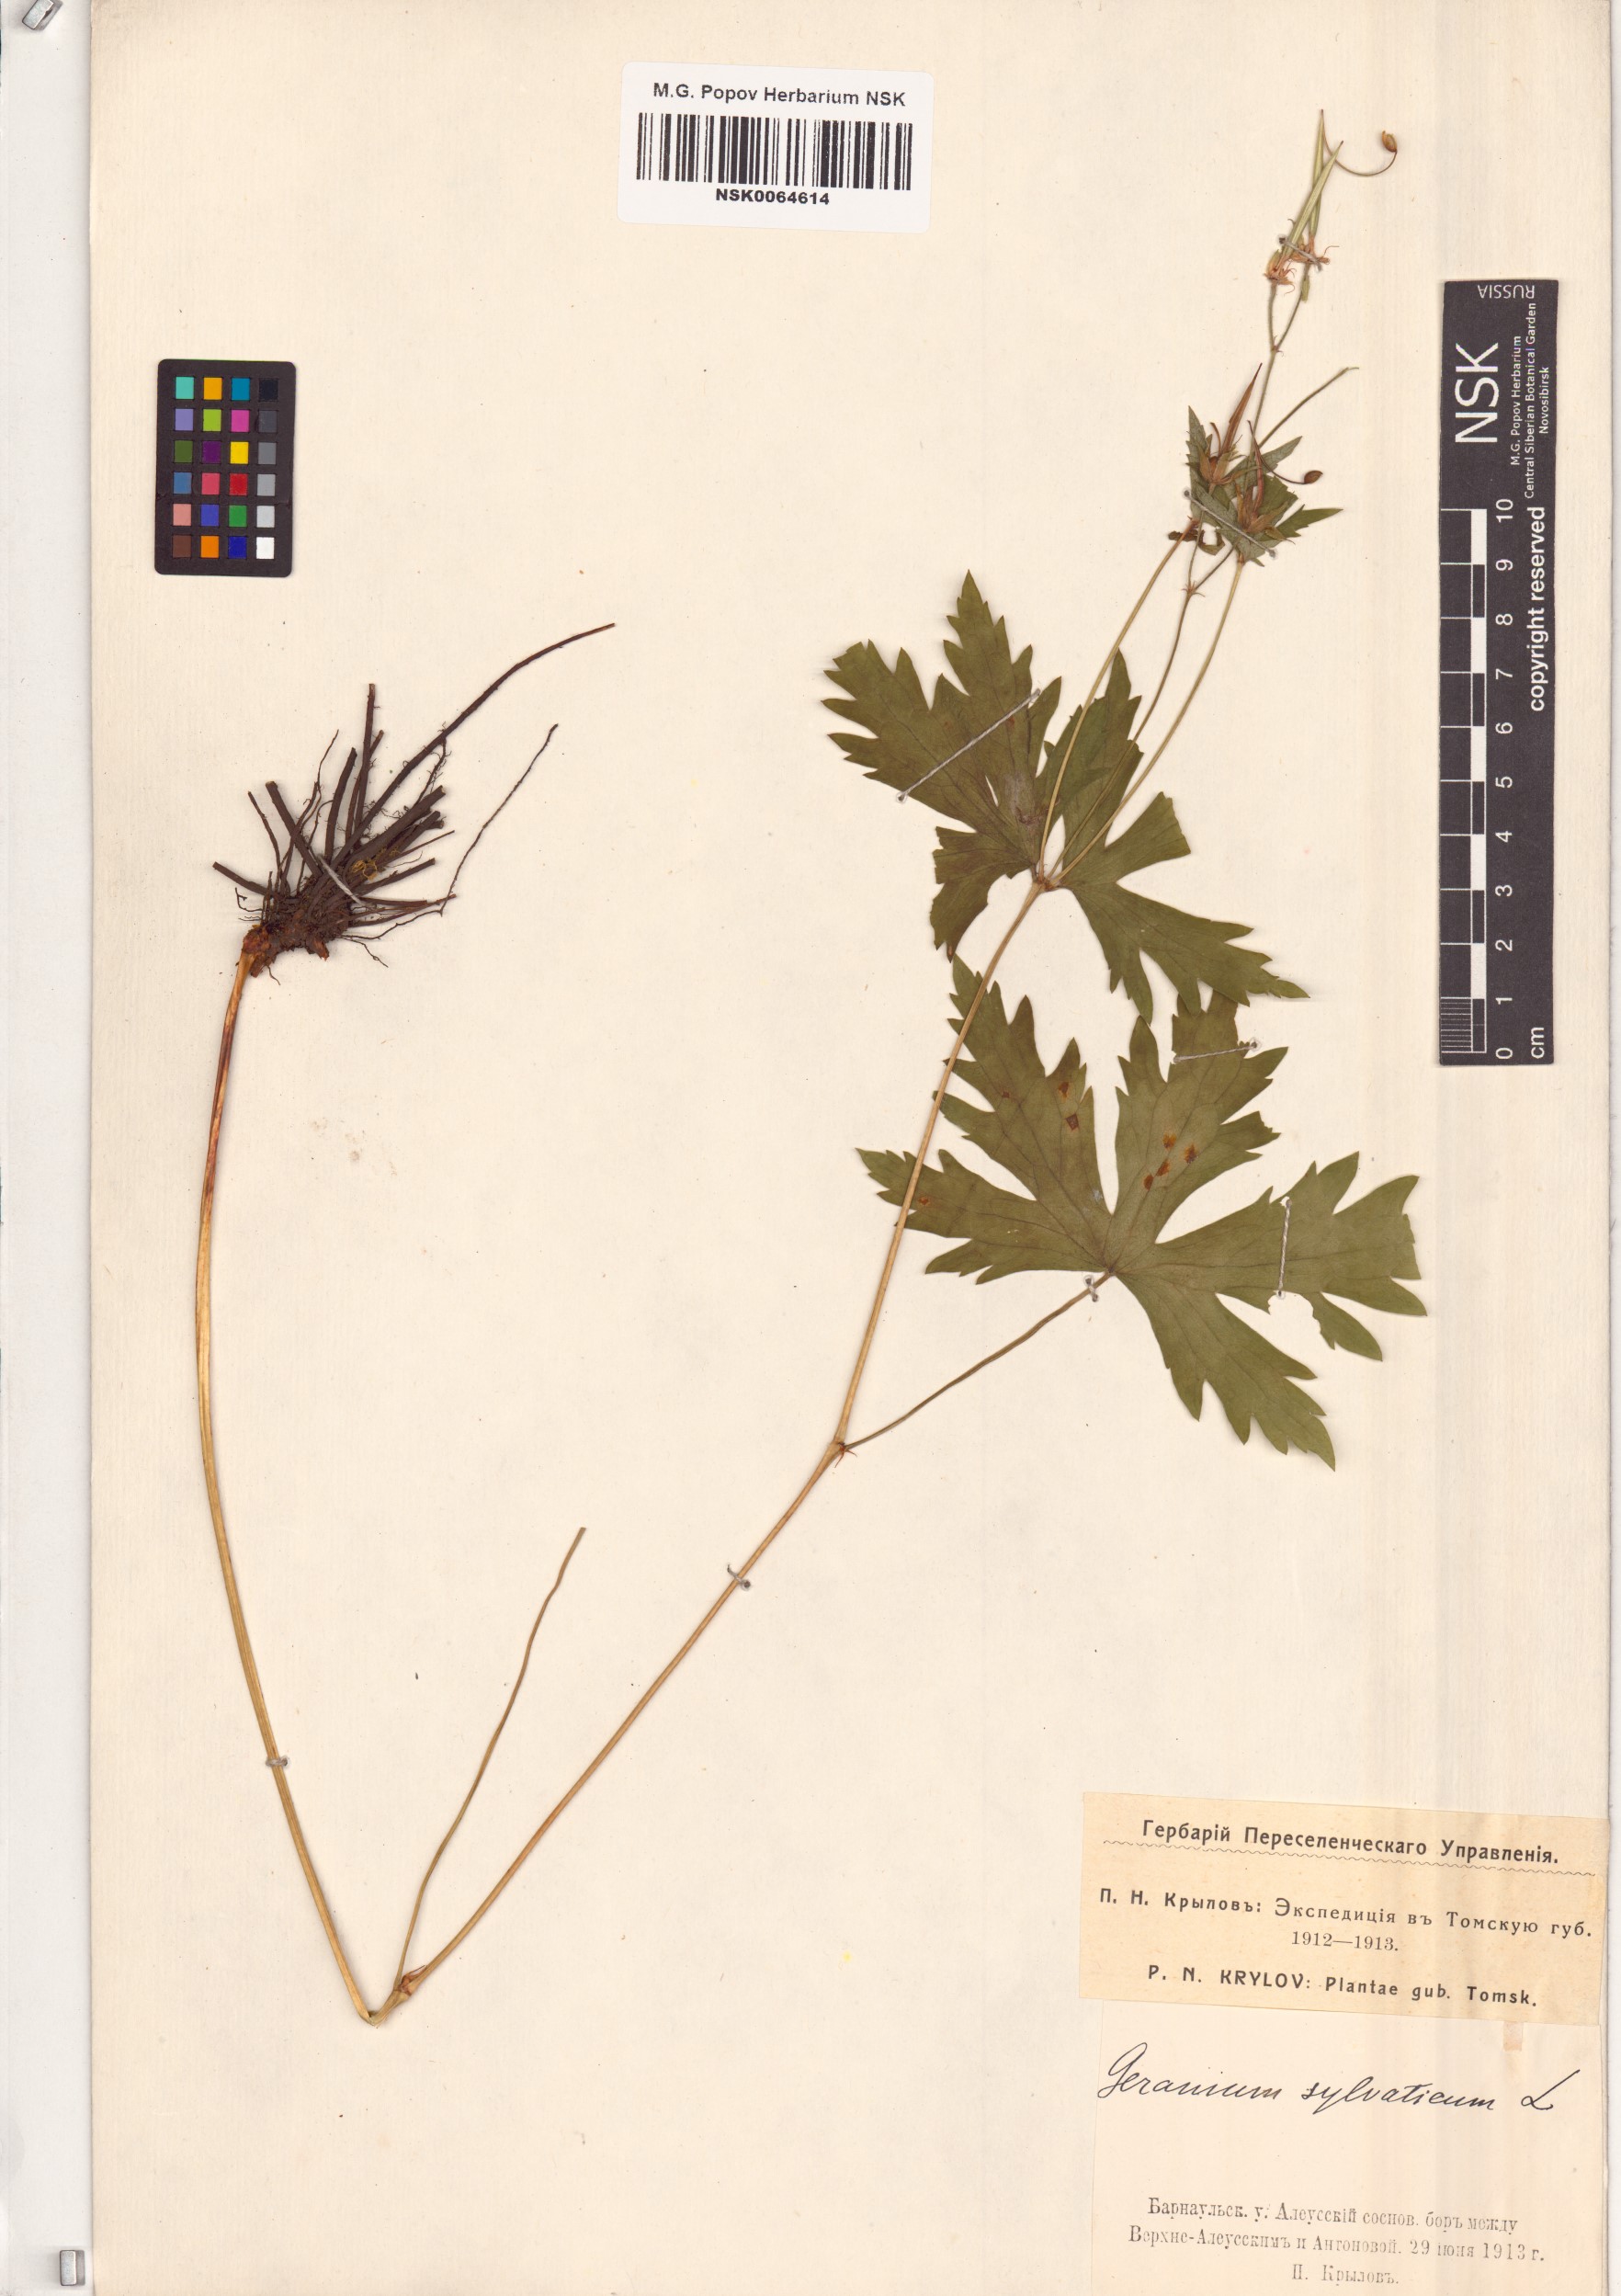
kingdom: Plantae
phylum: Tracheophyta
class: Magnoliopsida
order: Geraniales
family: Geraniaceae
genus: Geranium
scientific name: Geranium sylvaticum
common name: Wood crane's-bill
